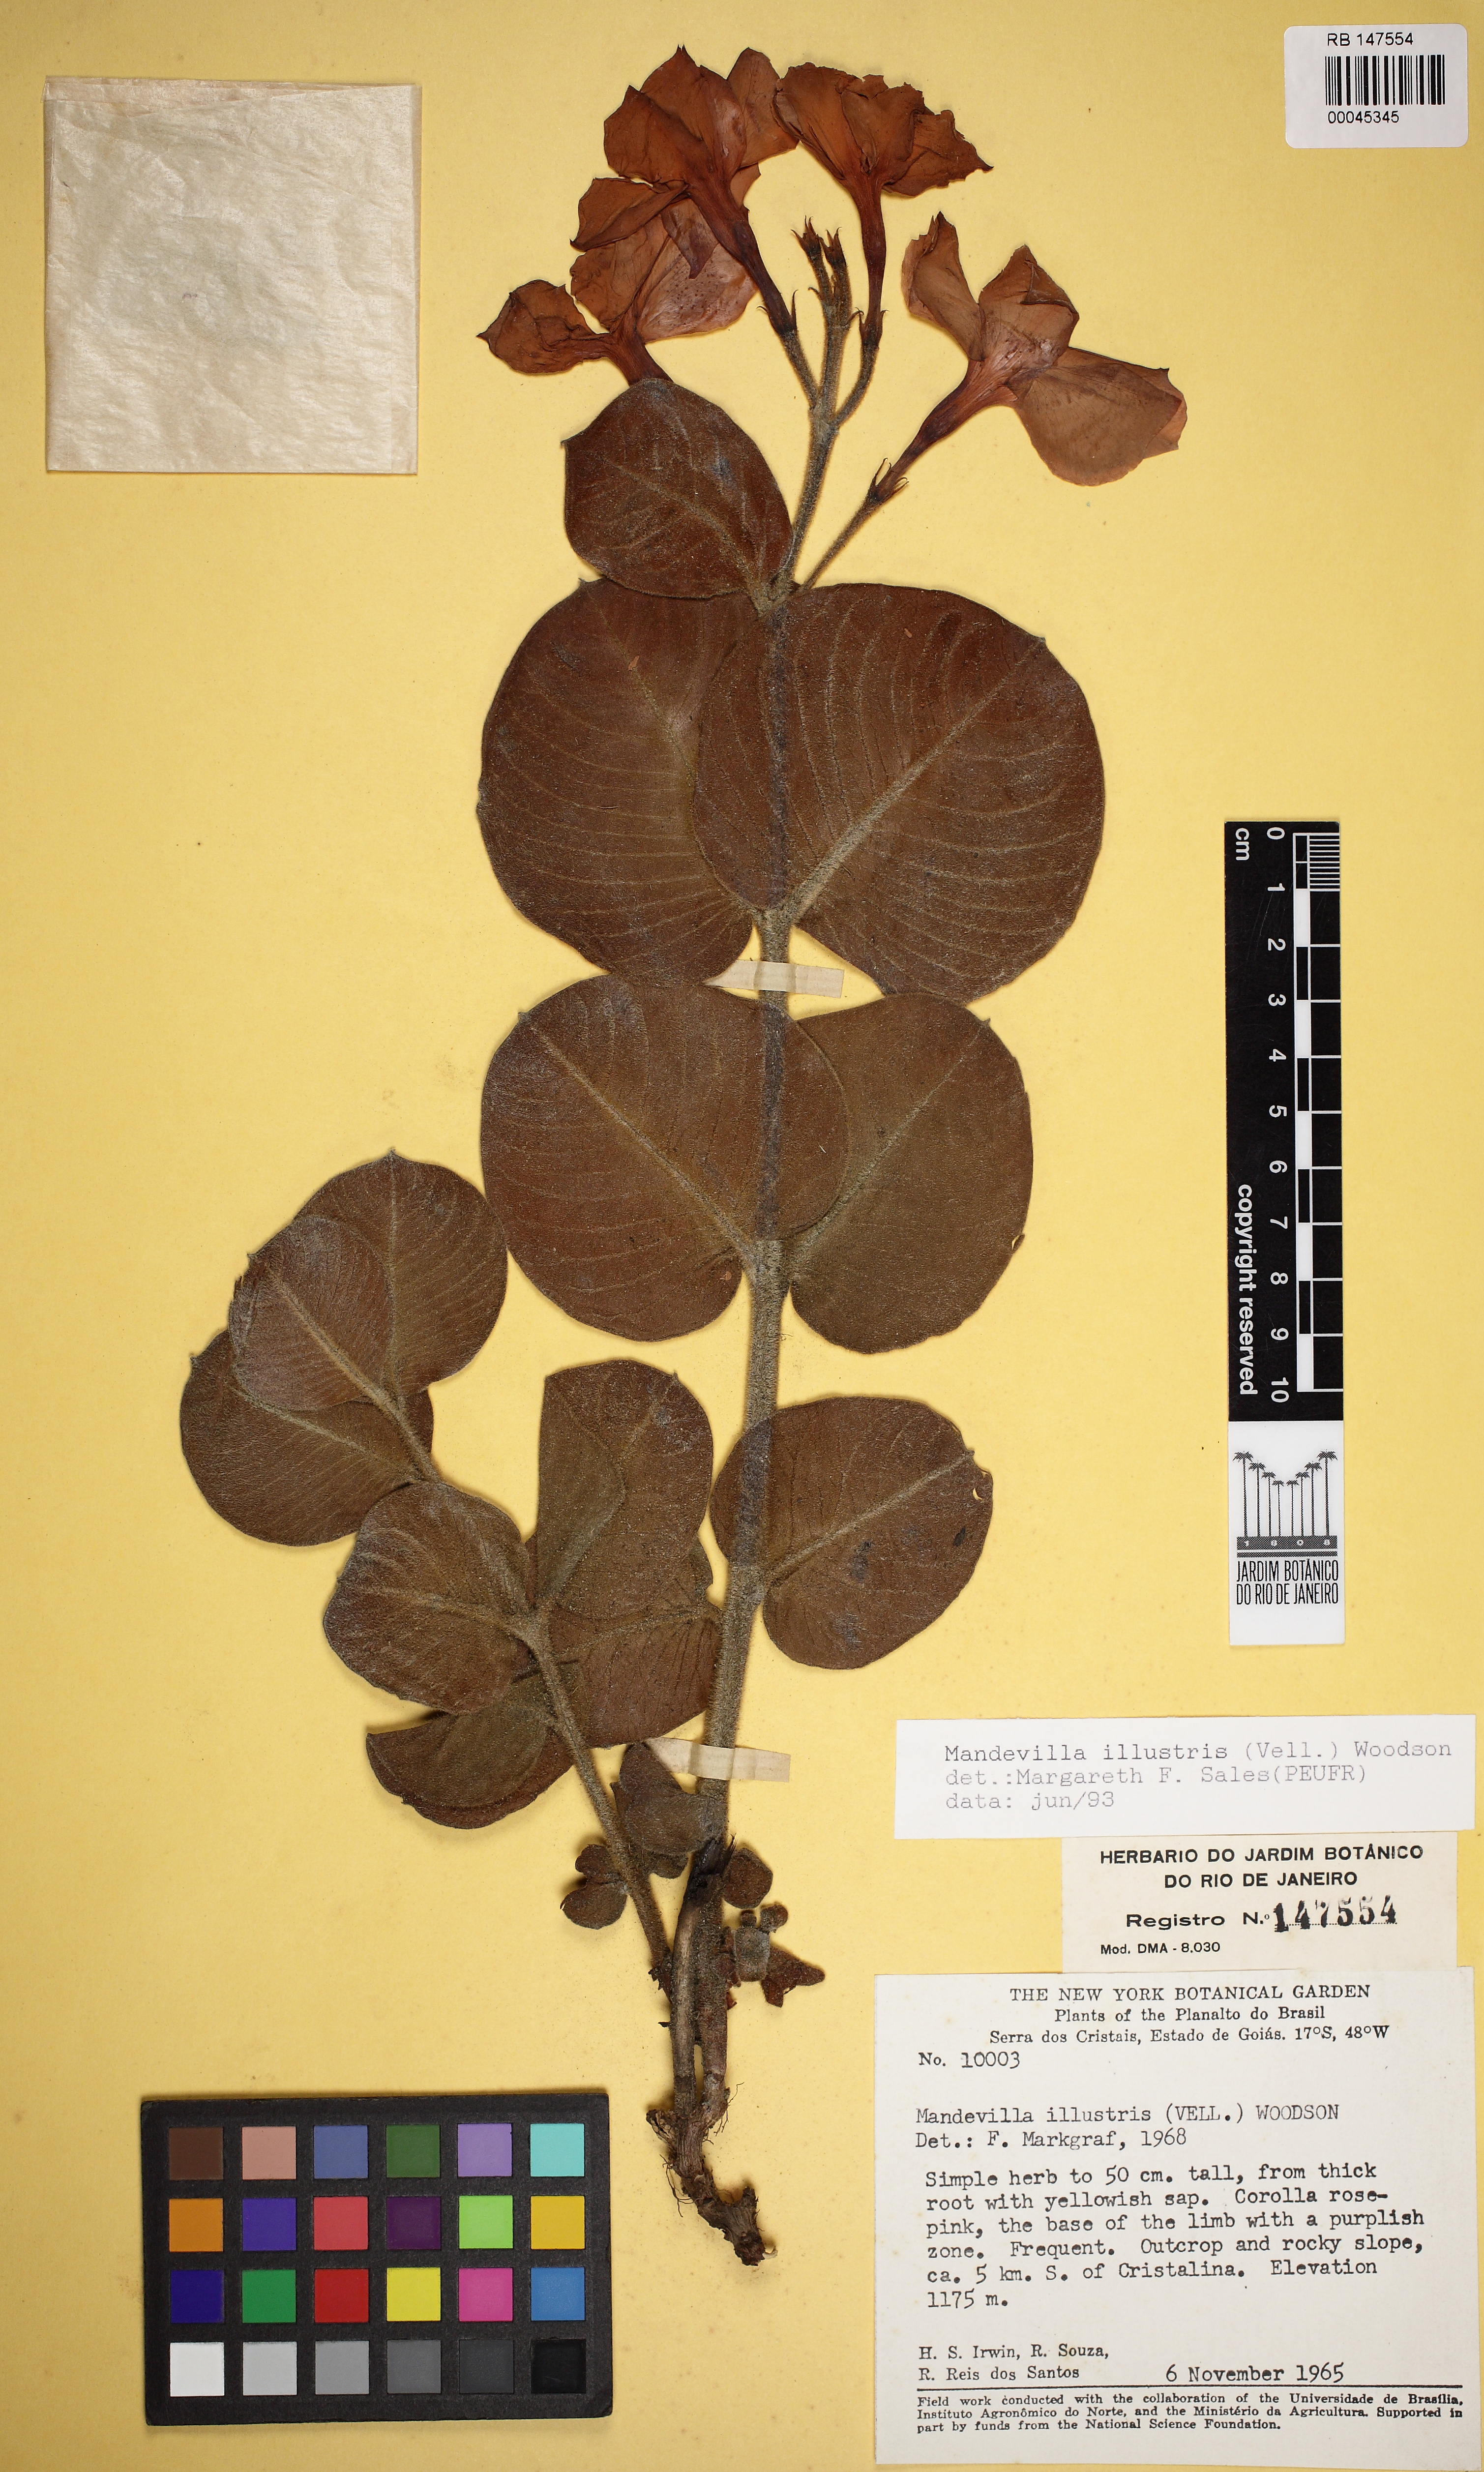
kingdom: Plantae
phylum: Tracheophyta
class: Magnoliopsida
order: Gentianales
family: Apocynaceae
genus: Mandevilla
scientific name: Mandevilla illustris
